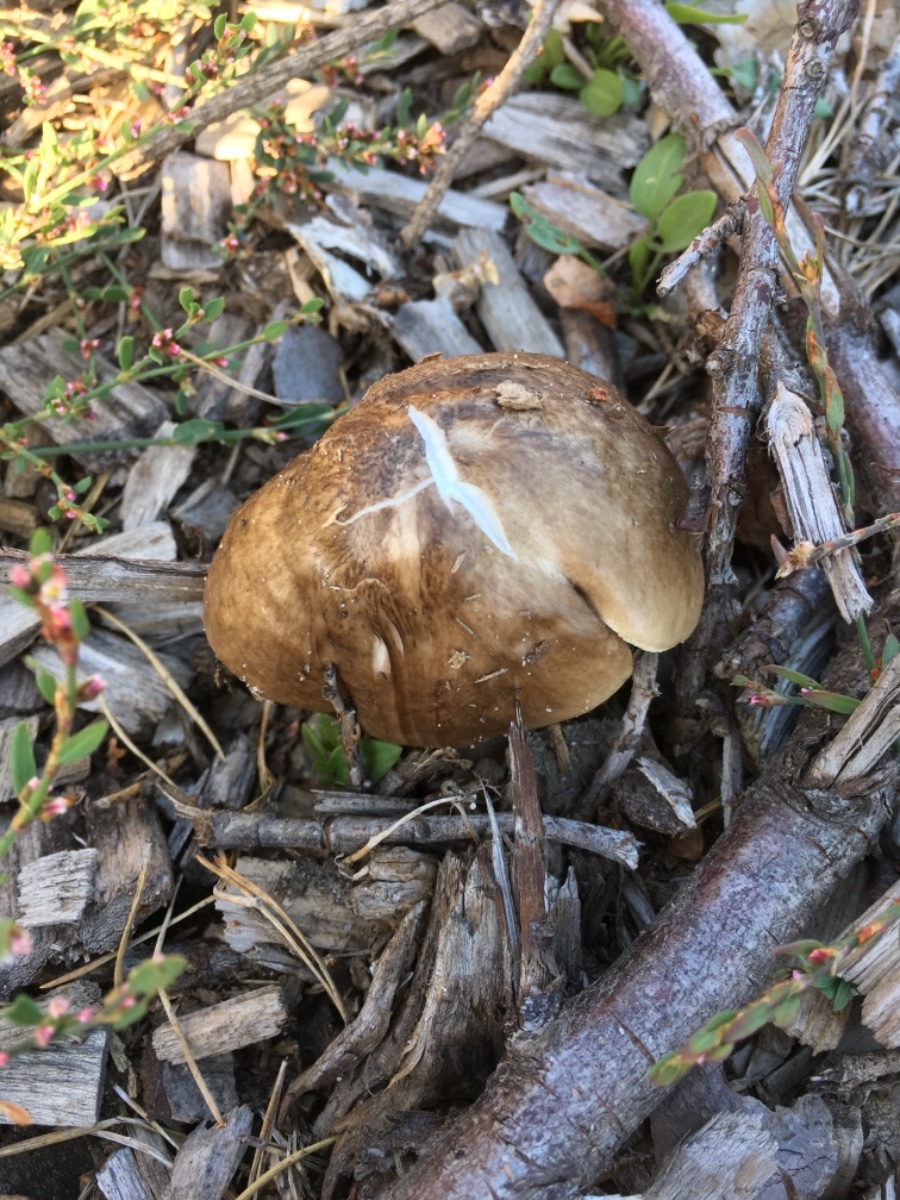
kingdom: Fungi
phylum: Basidiomycota
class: Agaricomycetes
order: Agaricales
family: Pluteaceae
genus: Pluteus
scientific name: Pluteus cervinus
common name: sodfarvet skærmhat
